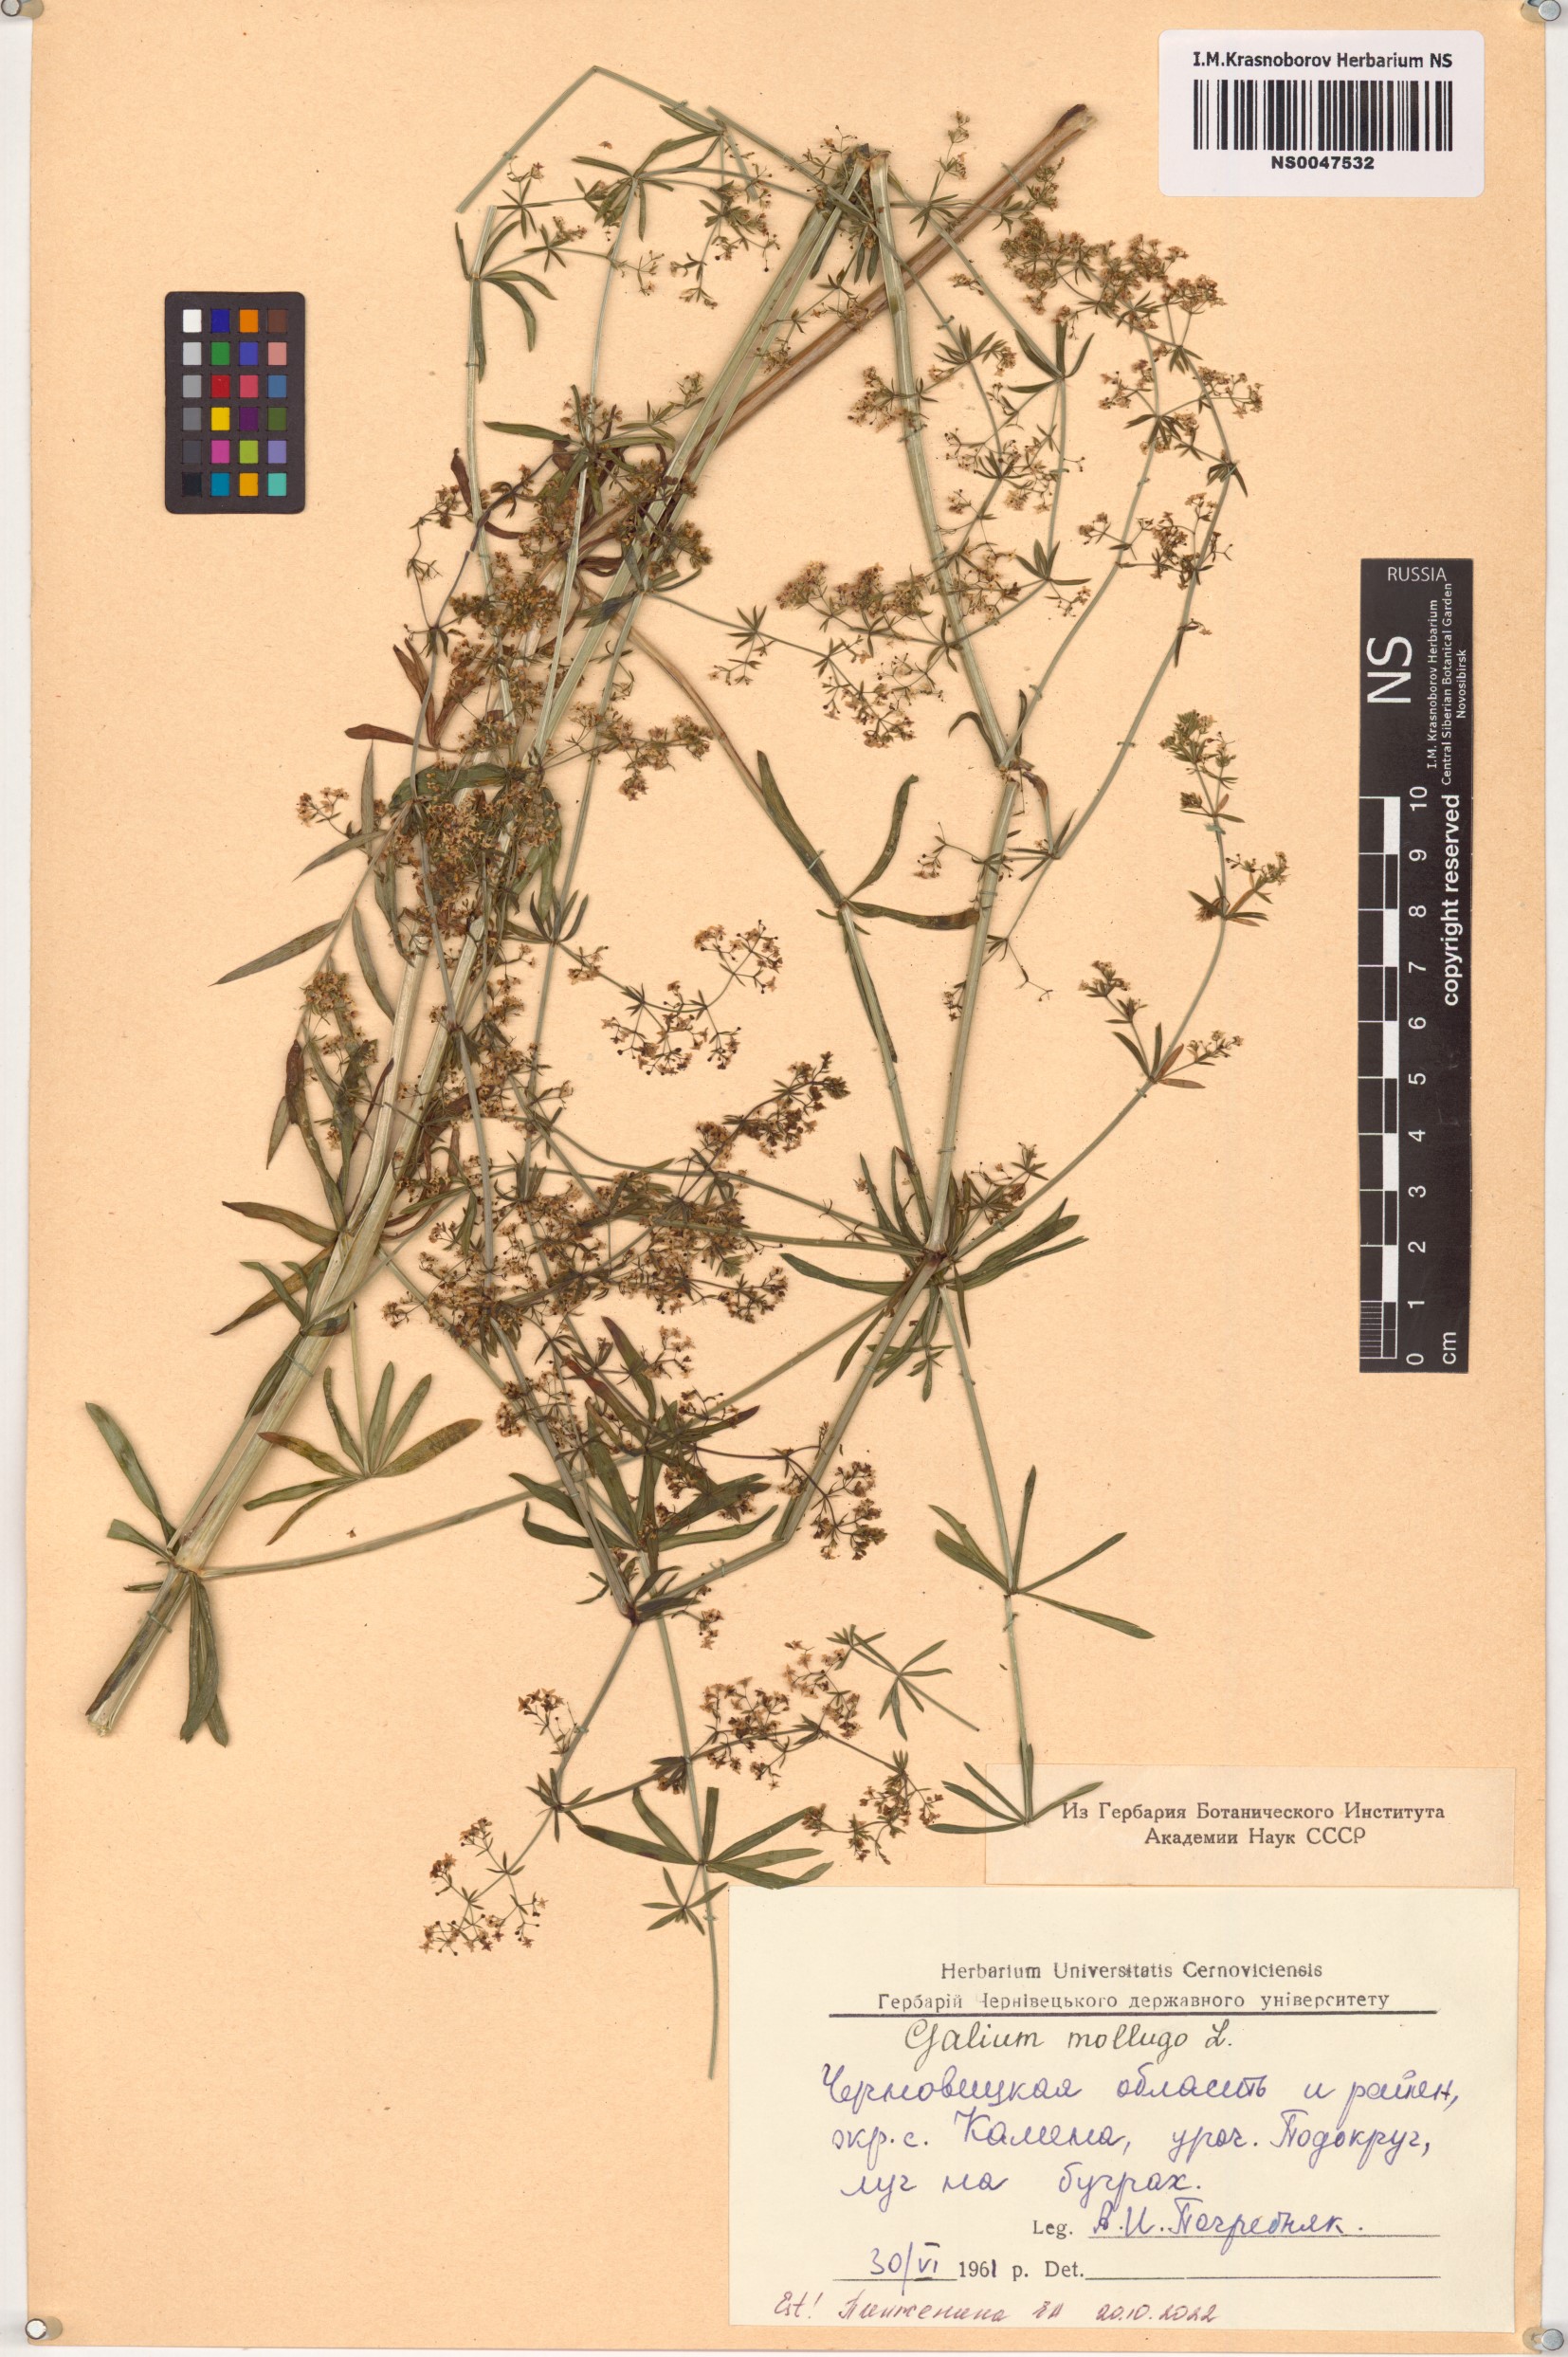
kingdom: Plantae
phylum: Tracheophyta
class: Magnoliopsida
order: Gentianales
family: Rubiaceae
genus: Galium
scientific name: Galium mollugo
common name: Hedge bedstraw
